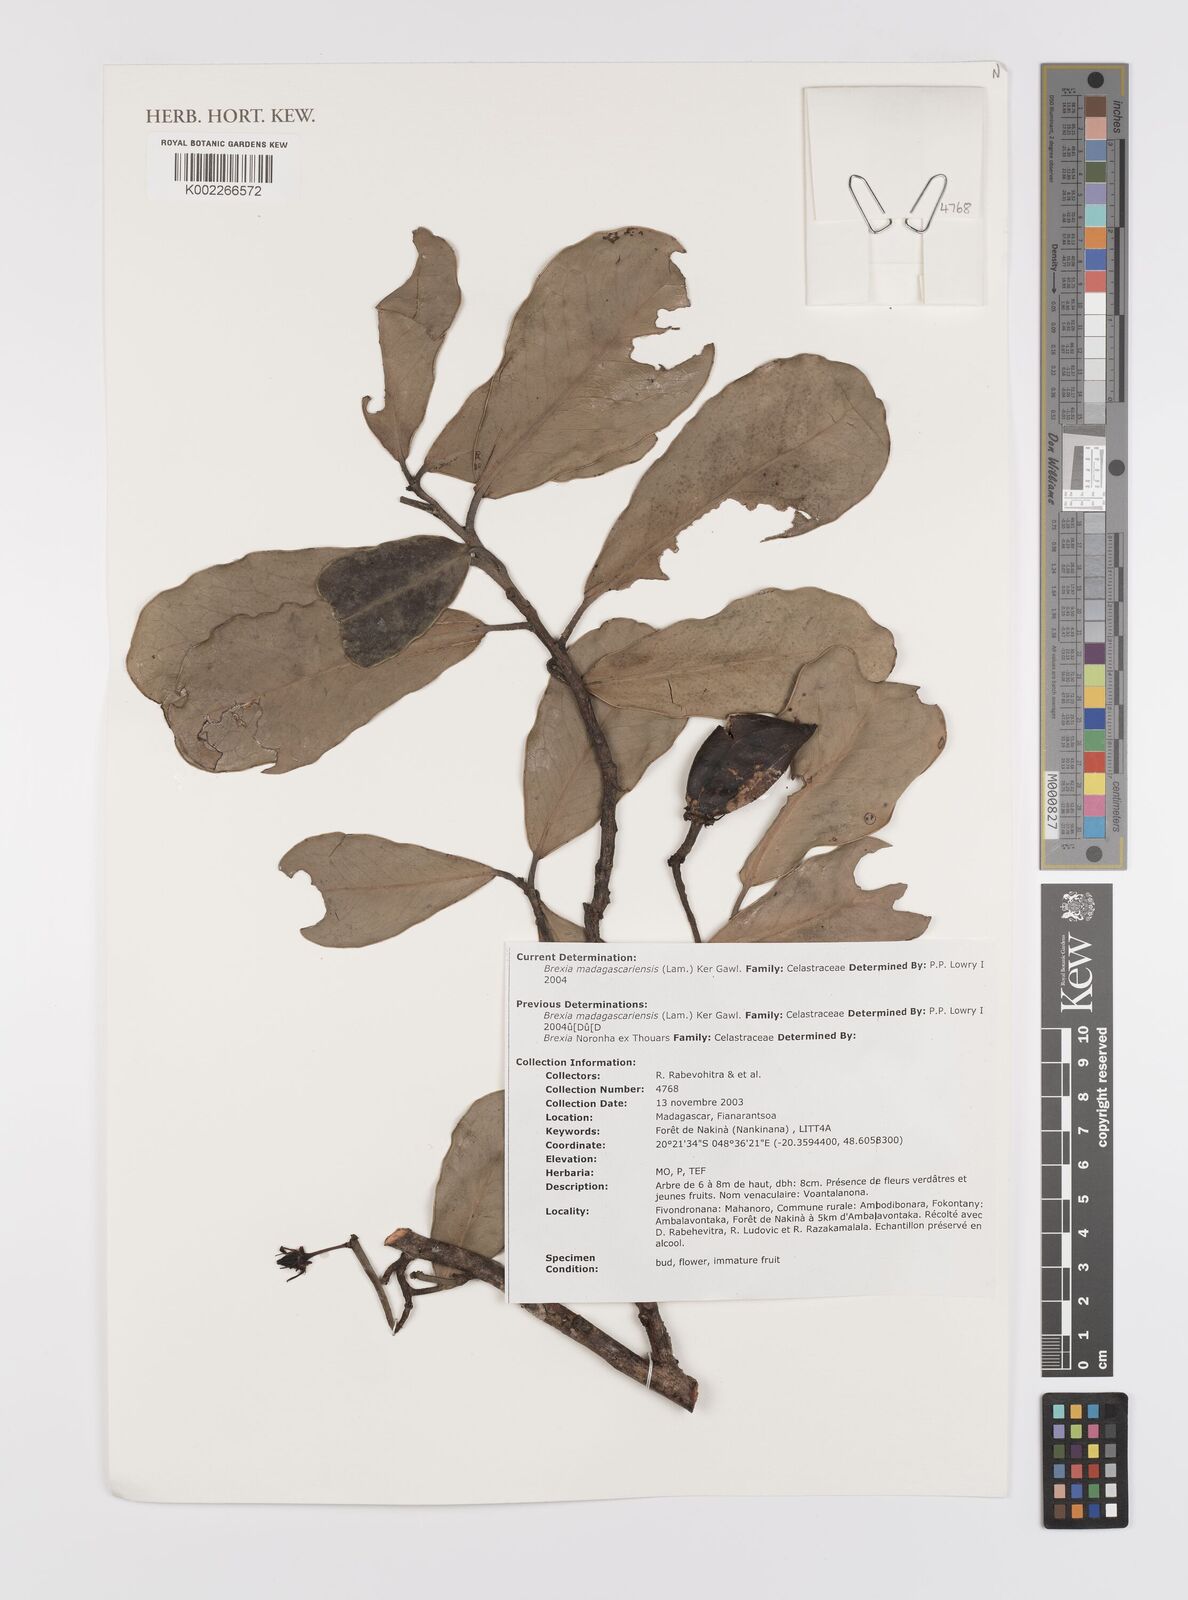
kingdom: Plantae
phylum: Tracheophyta
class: Magnoliopsida
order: Celastrales
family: Celastraceae
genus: Brexia
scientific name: Brexia madagascariensis
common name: Brexia
